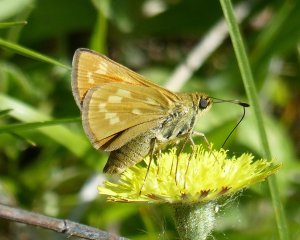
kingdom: Animalia
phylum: Arthropoda
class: Insecta
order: Lepidoptera
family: Hesperiidae
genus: Hesperia
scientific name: Hesperia sassacus
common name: Sassacus Skipper
